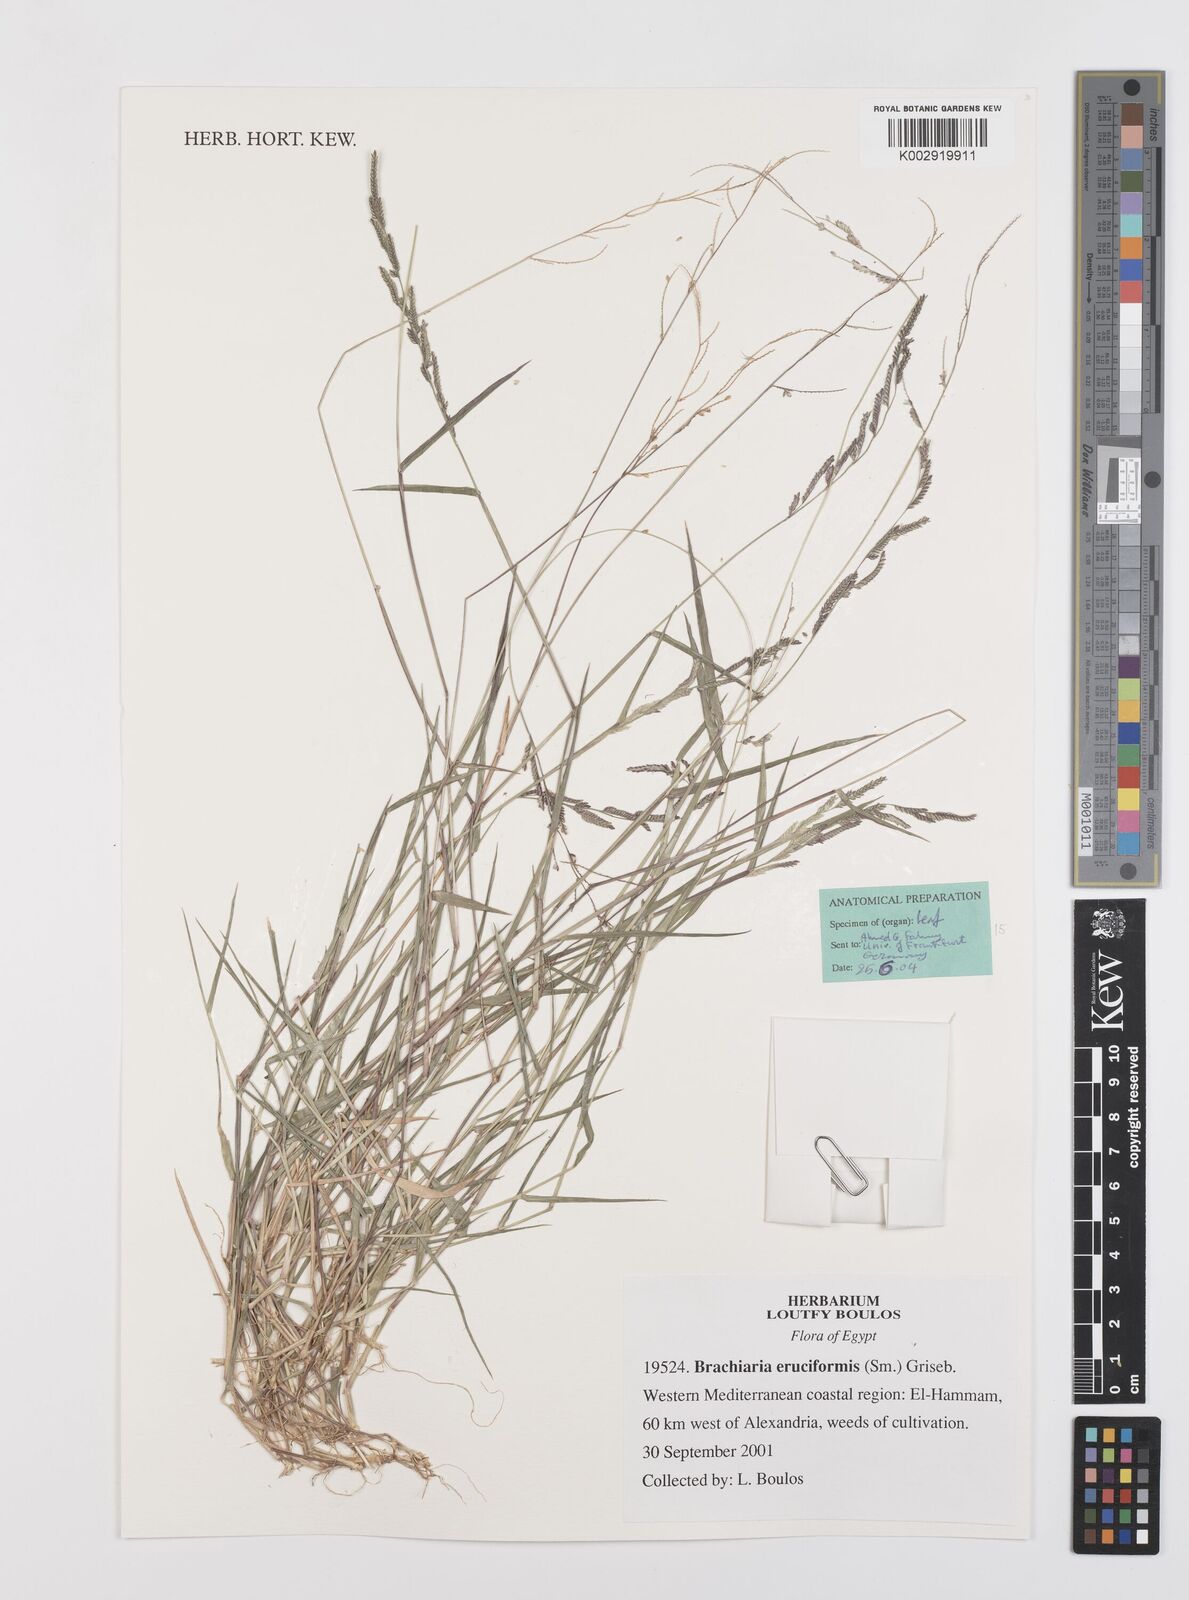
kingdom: Plantae
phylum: Tracheophyta
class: Liliopsida
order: Poales
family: Poaceae
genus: Moorochloa
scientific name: Moorochloa eruciformis
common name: Sweet signalgrass
